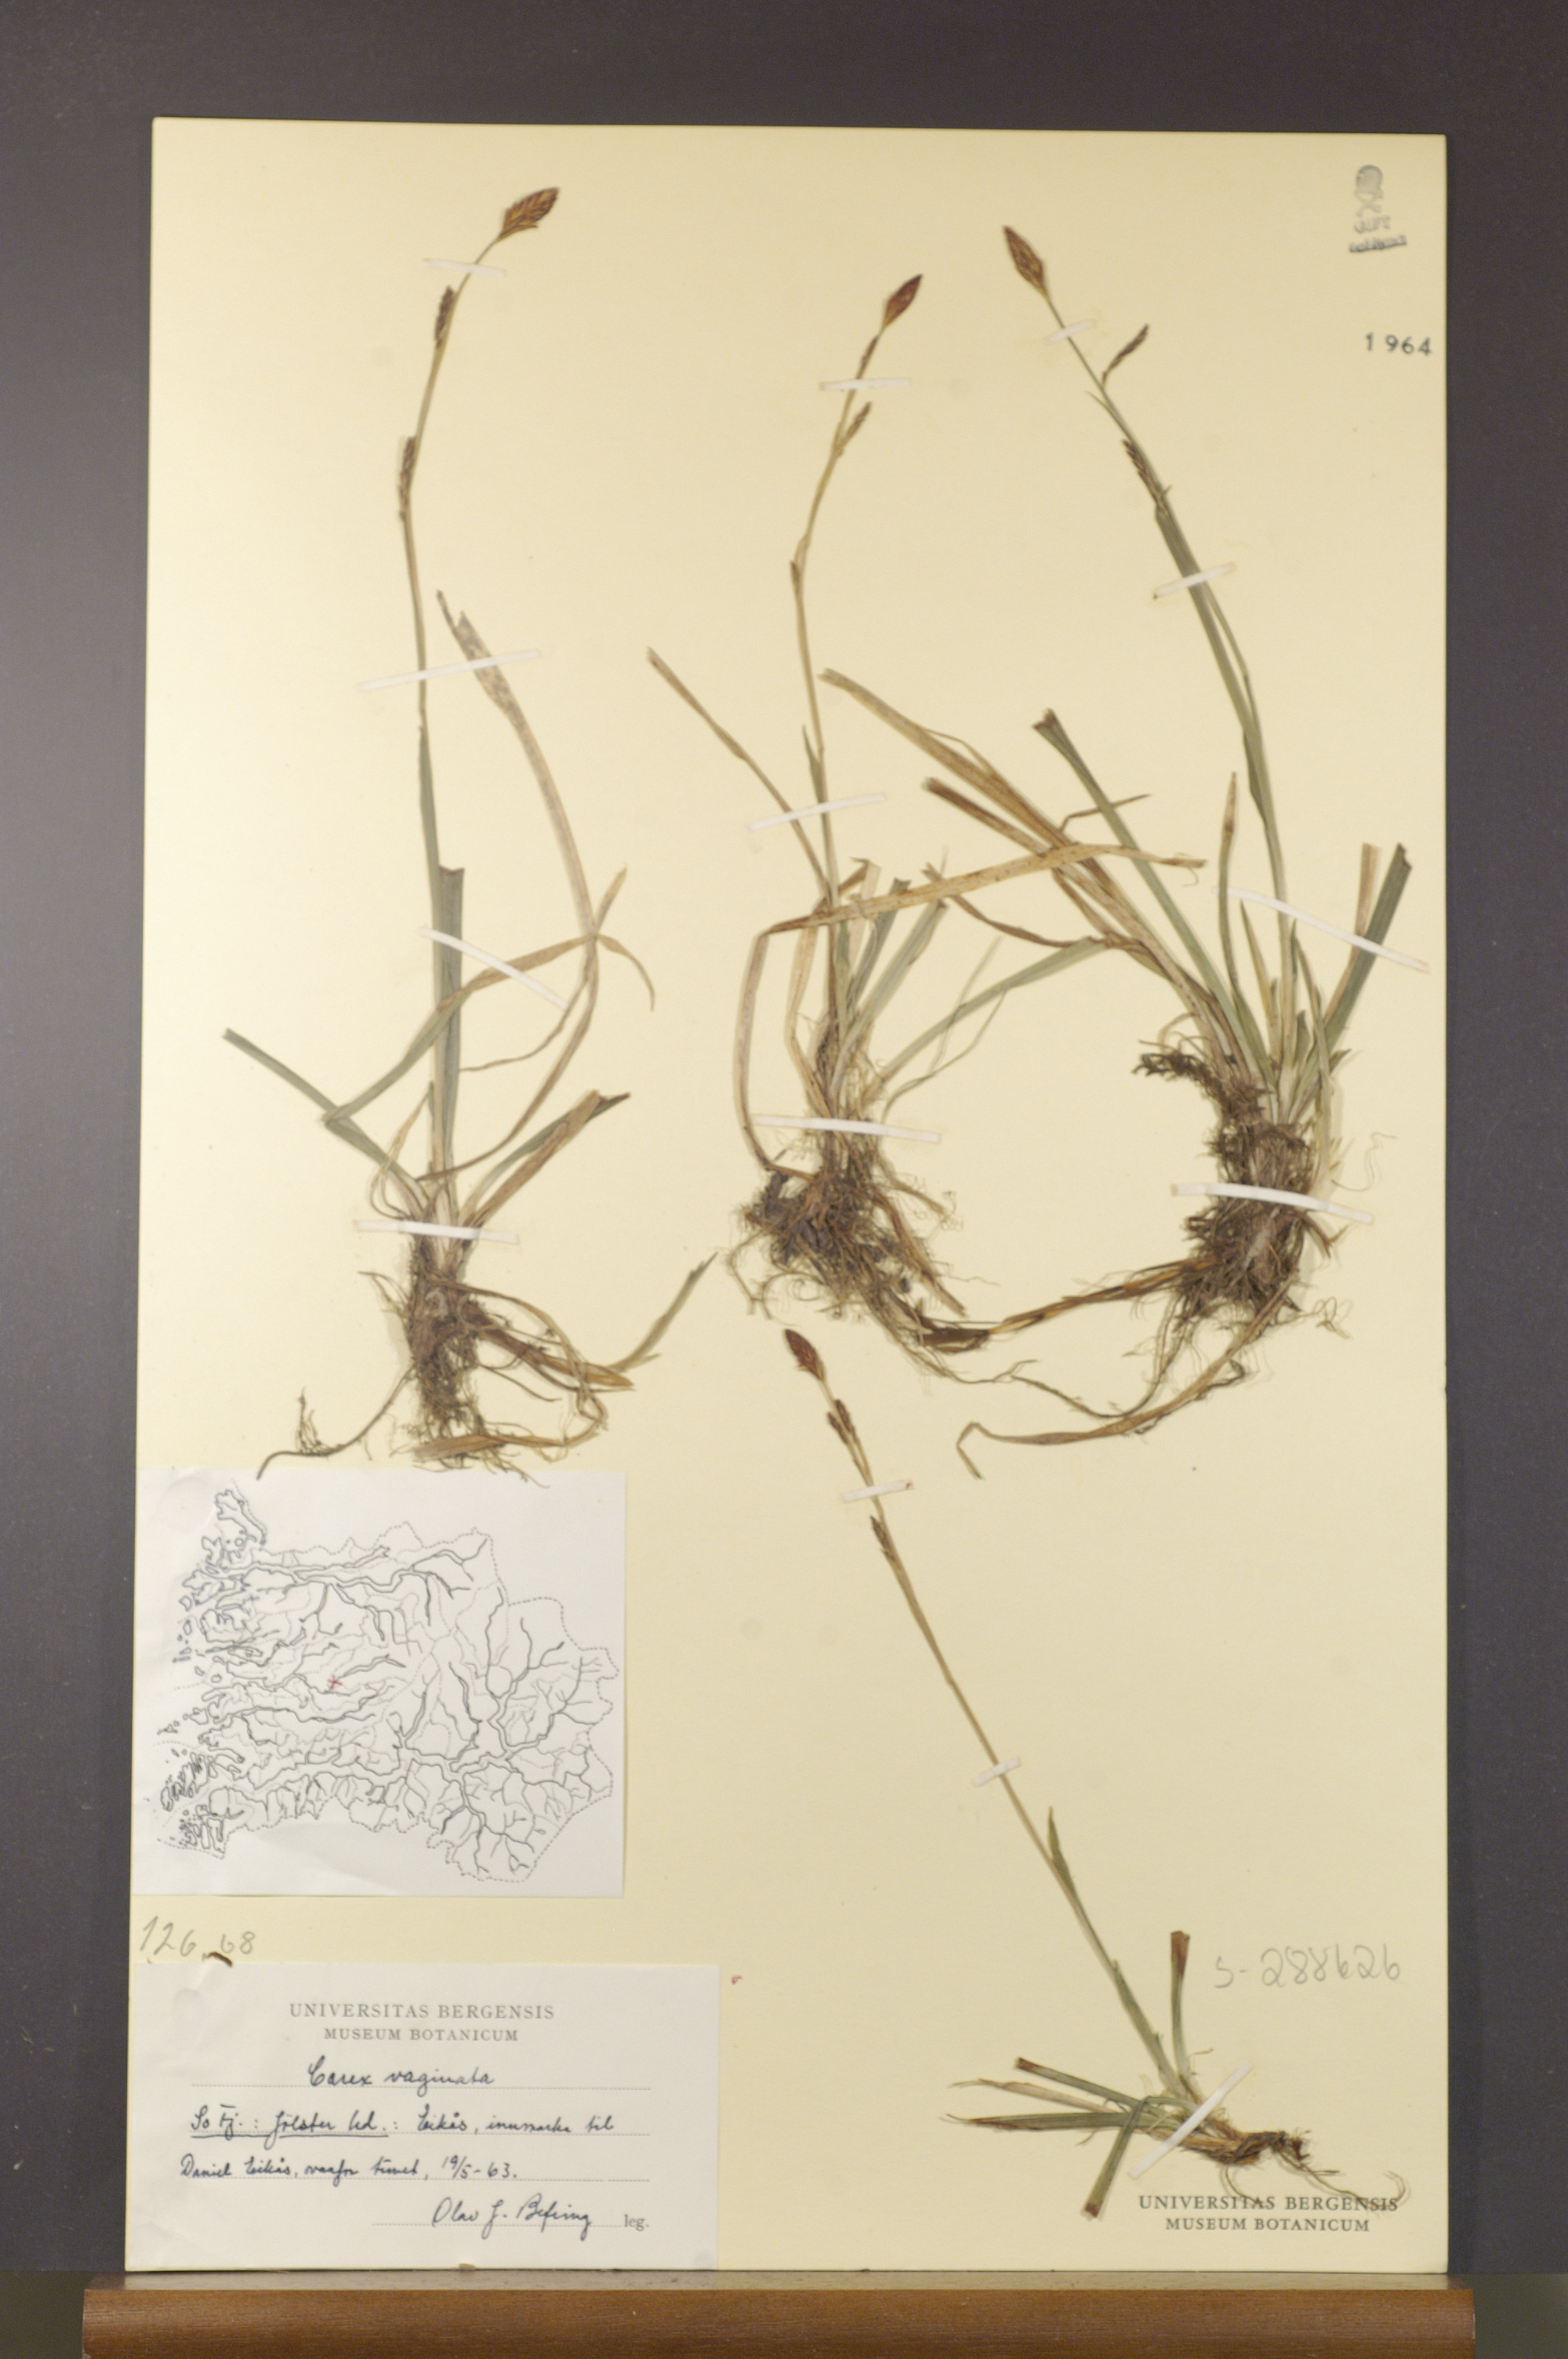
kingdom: Plantae
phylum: Tracheophyta
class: Liliopsida
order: Poales
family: Cyperaceae
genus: Carex
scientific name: Carex vaginata
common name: Sheathed sedge
